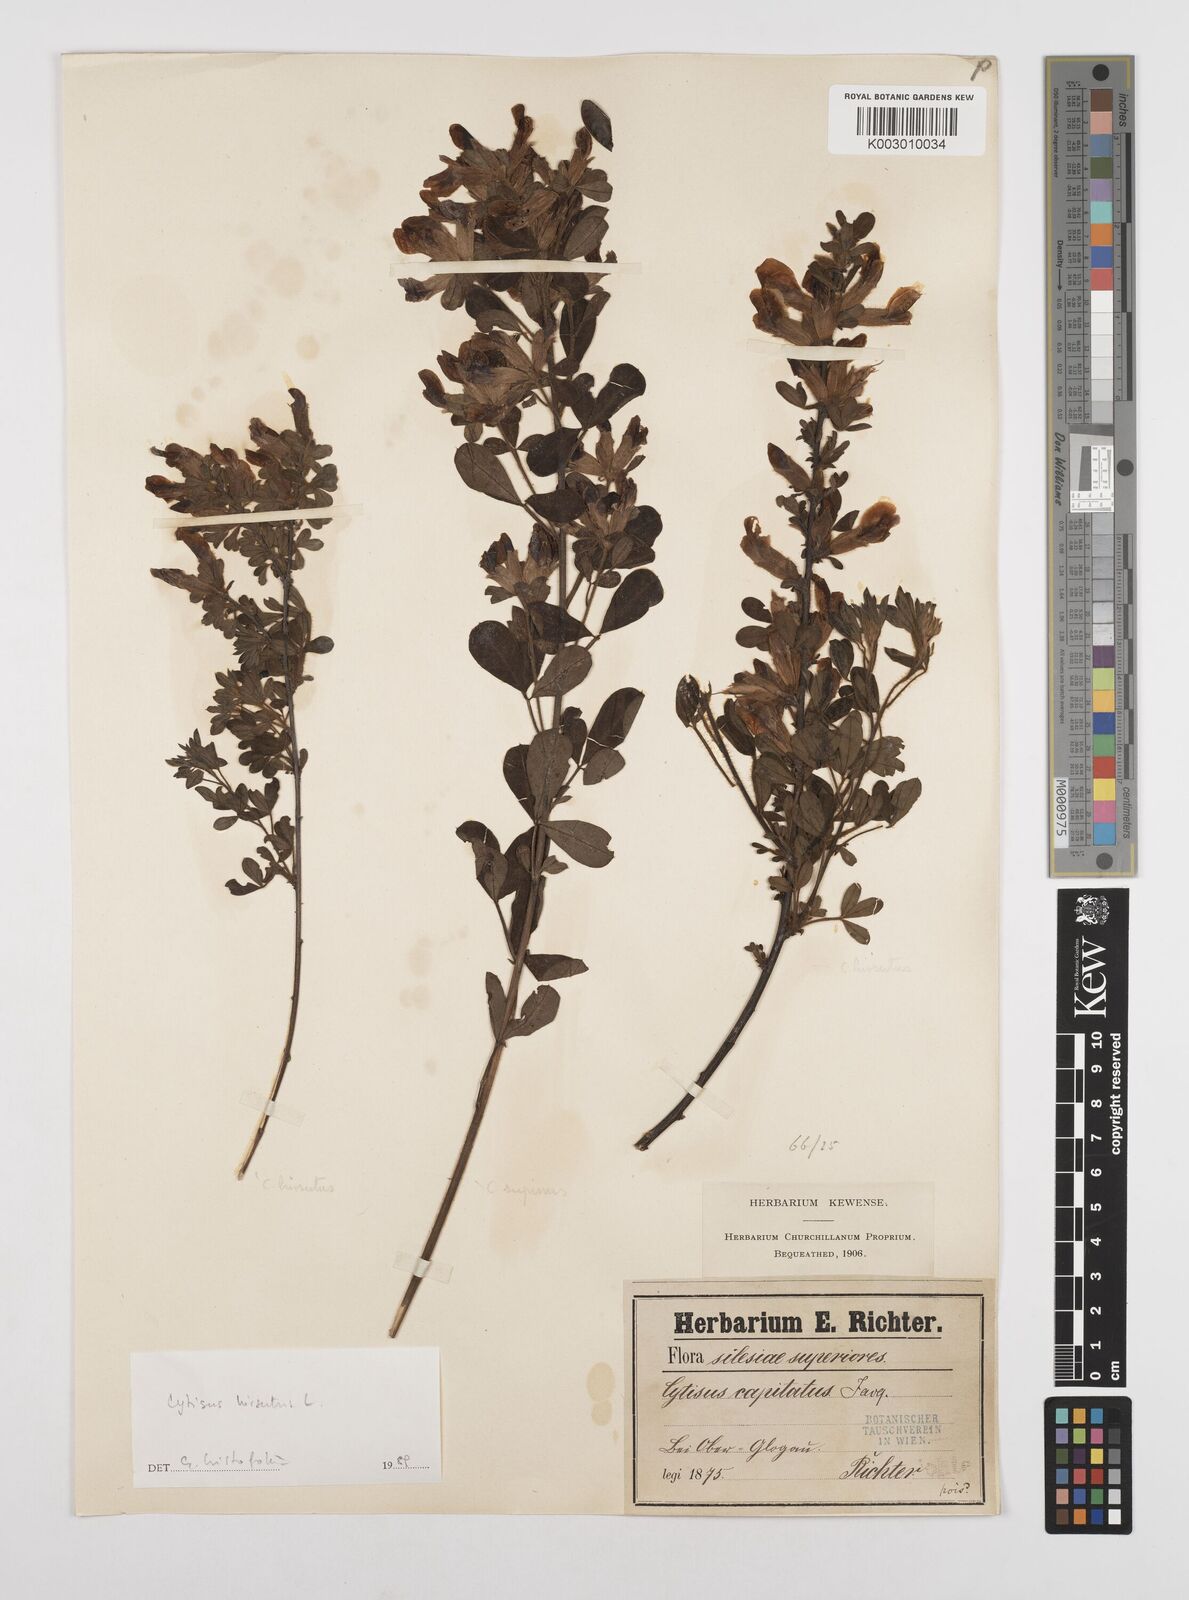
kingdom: Plantae
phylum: Tracheophyta
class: Magnoliopsida
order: Fabales
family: Fabaceae
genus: Chamaecytisus
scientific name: Chamaecytisus hirsutus
